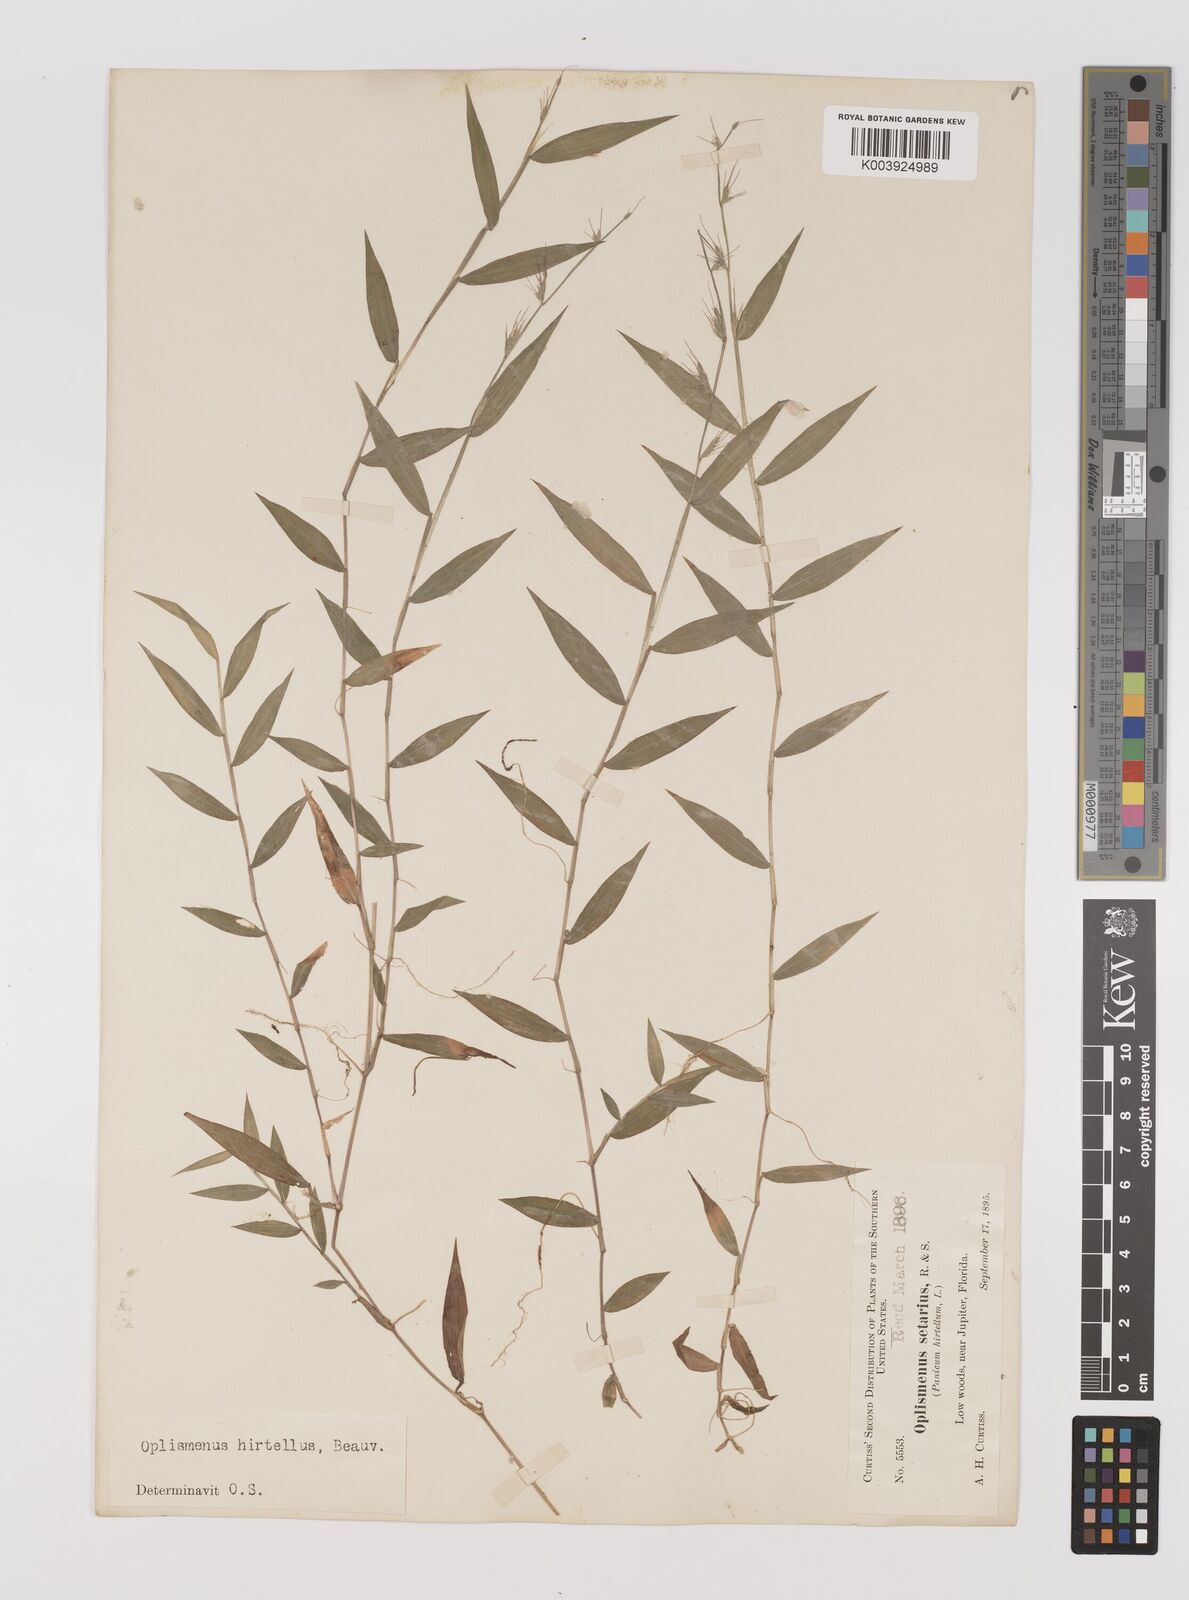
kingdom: Plantae
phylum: Tracheophyta
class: Liliopsida
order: Poales
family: Poaceae
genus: Oplismenus
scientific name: Oplismenus hirtellus
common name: Basketgrass
